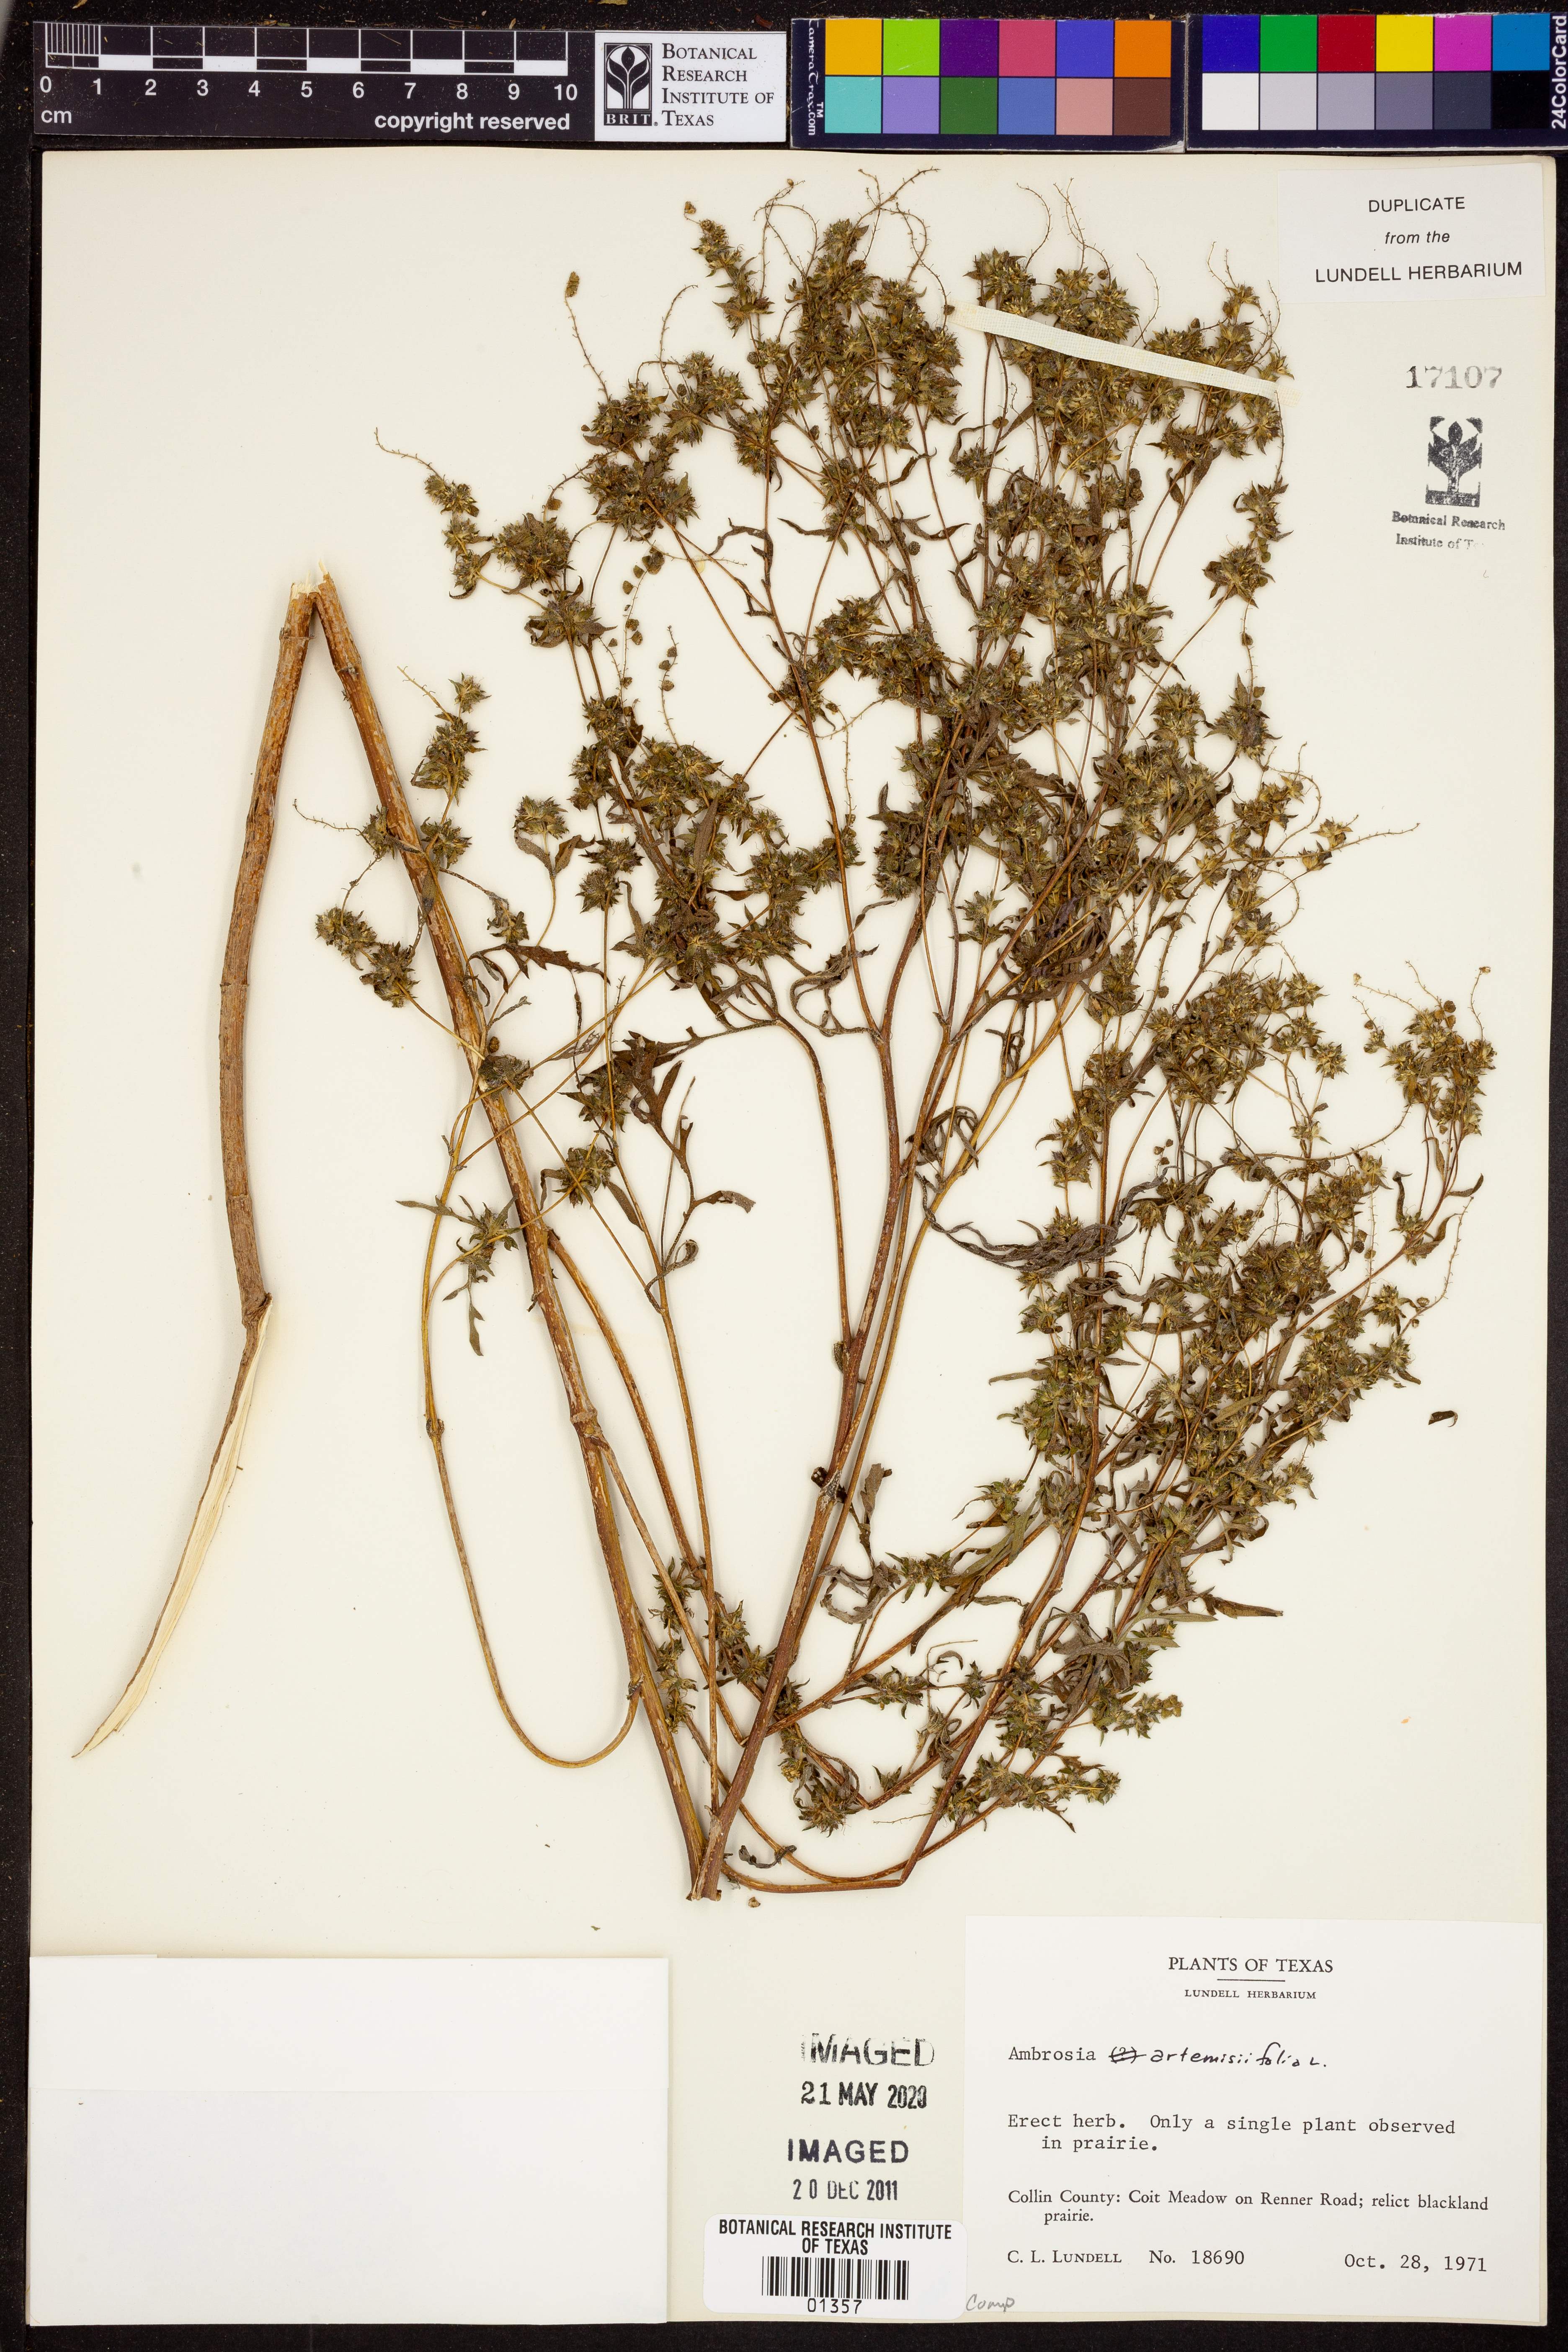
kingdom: Plantae
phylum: Tracheophyta
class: Magnoliopsida
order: Asterales
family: Asteraceae
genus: Ambrosia
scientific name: Ambrosia artemisiifolia
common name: Annual ragweed
